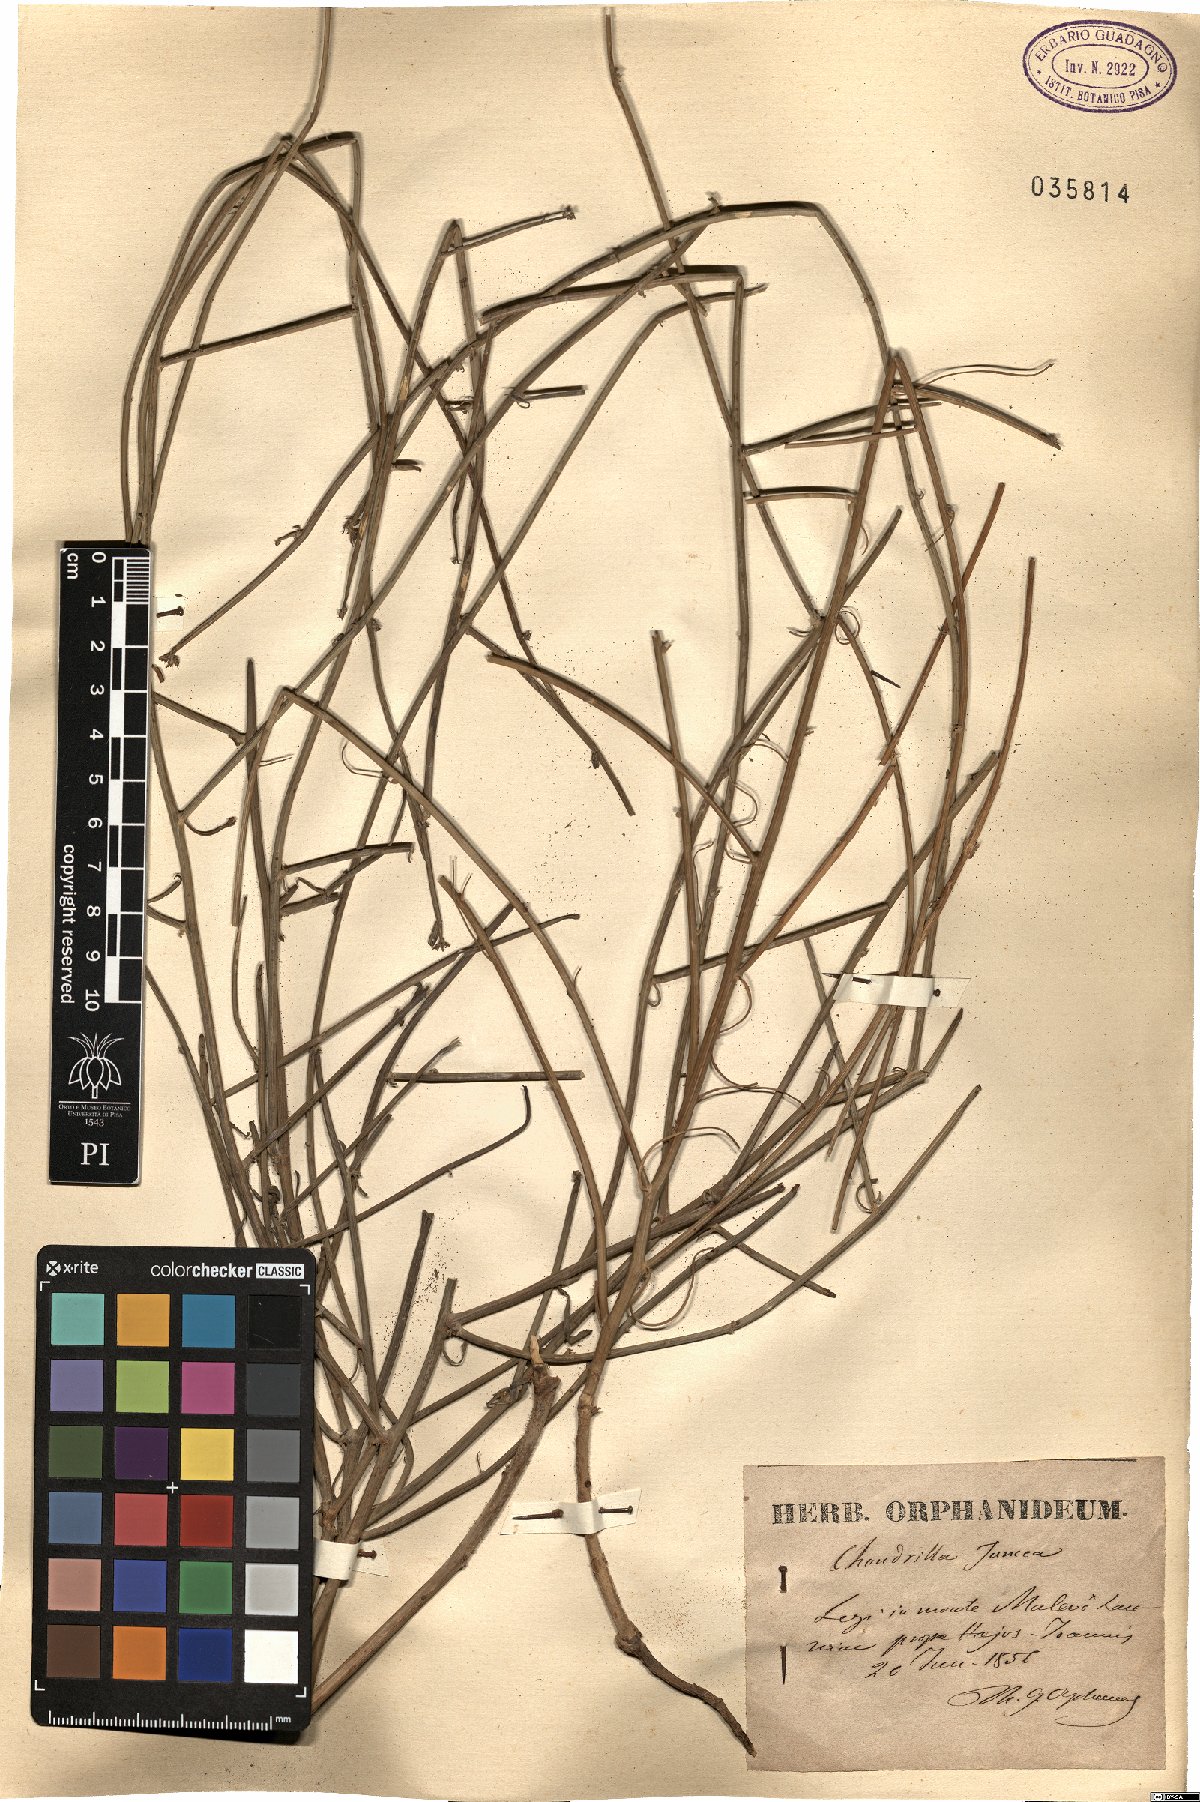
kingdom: Plantae
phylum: Tracheophyta
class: Magnoliopsida
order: Asterales
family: Asteraceae
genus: Chondrilla
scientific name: Chondrilla juncea
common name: Skeleton weed
